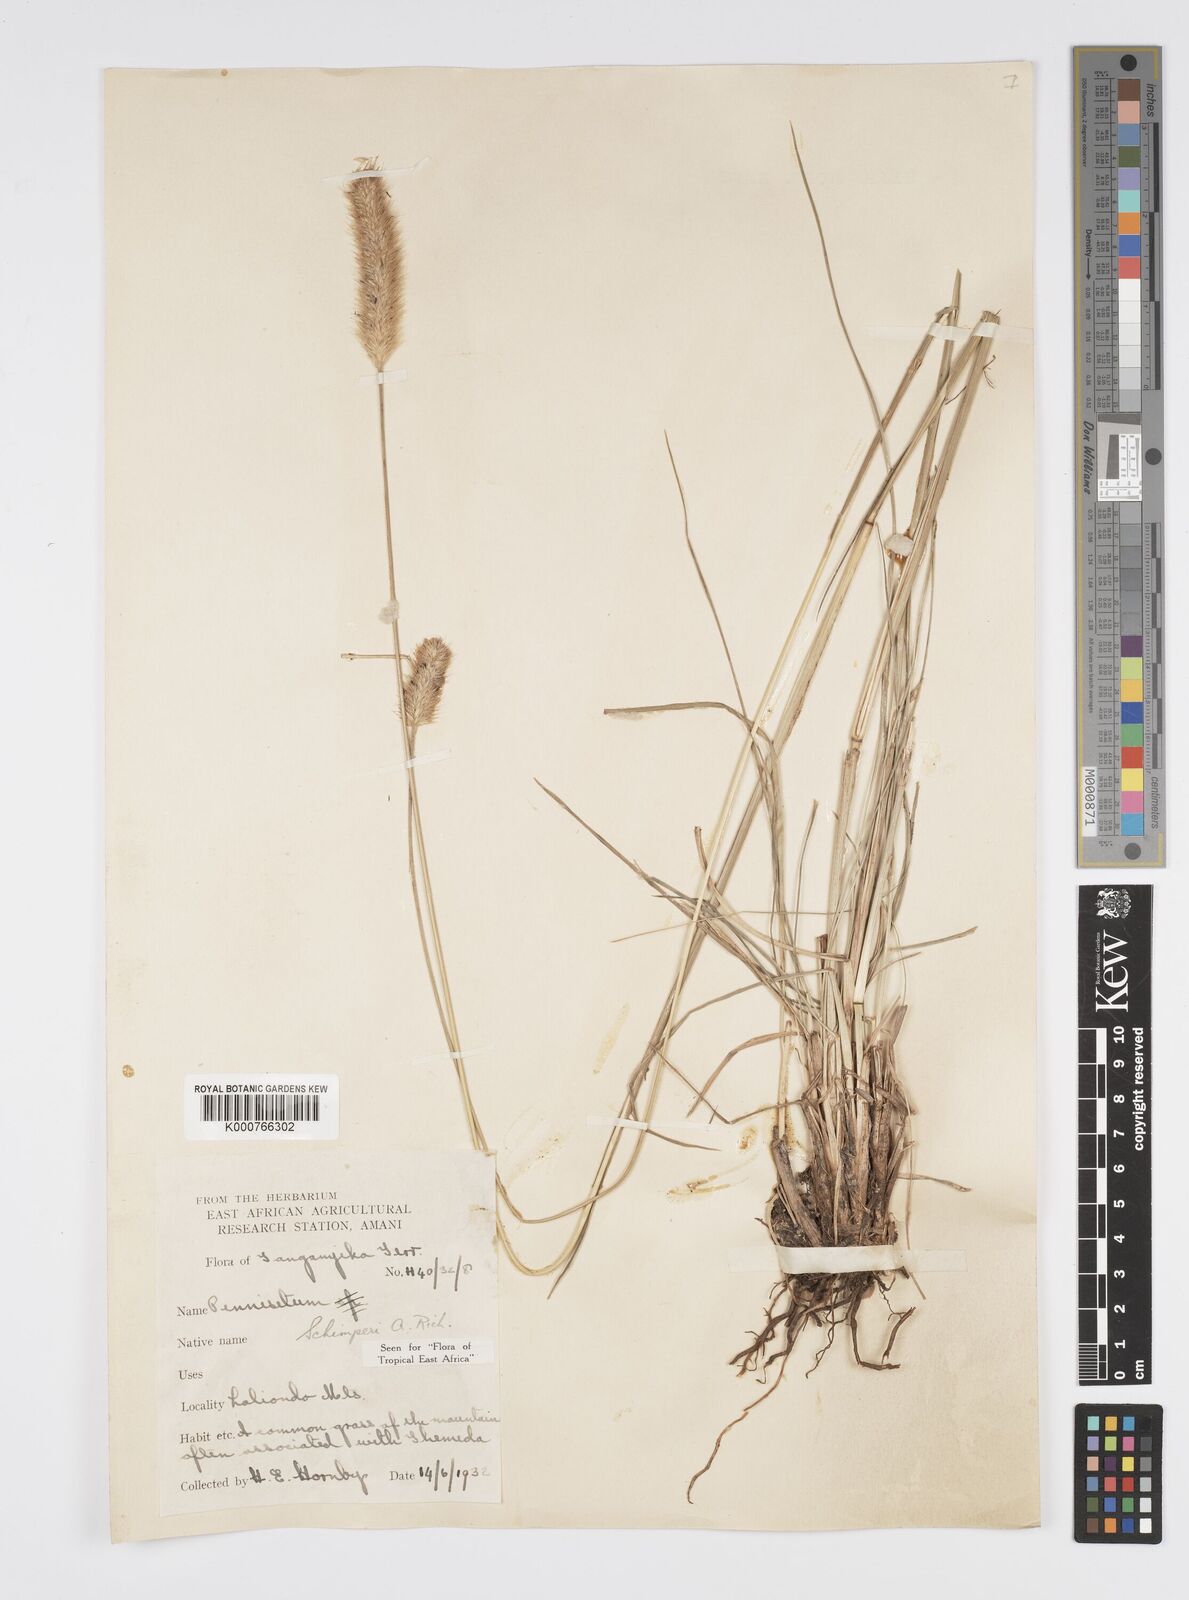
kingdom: Plantae
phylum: Tracheophyta
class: Liliopsida
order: Poales
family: Poaceae
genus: Cenchrus
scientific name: Cenchrus sphacelatus
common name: Bulgras
